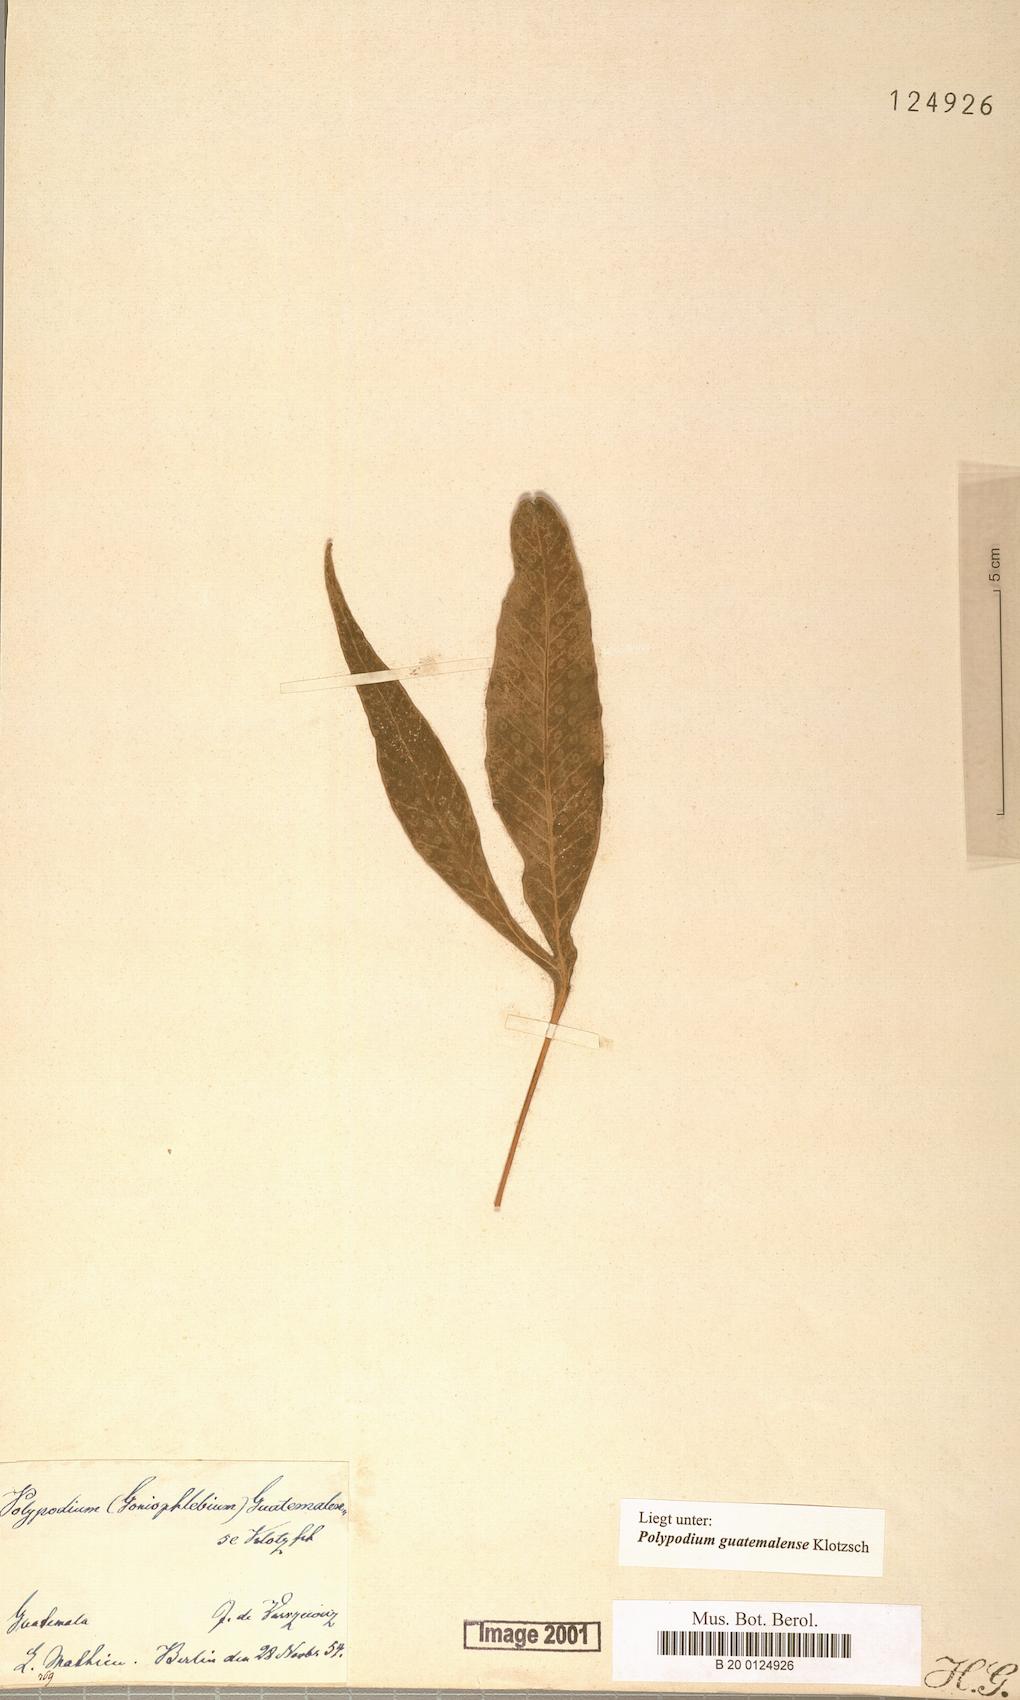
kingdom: Plantae
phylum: Tracheophyta
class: Polypodiopsida
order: Polypodiales
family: Polypodiaceae
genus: Pleopeltis
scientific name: Pleopeltis bradeorum
